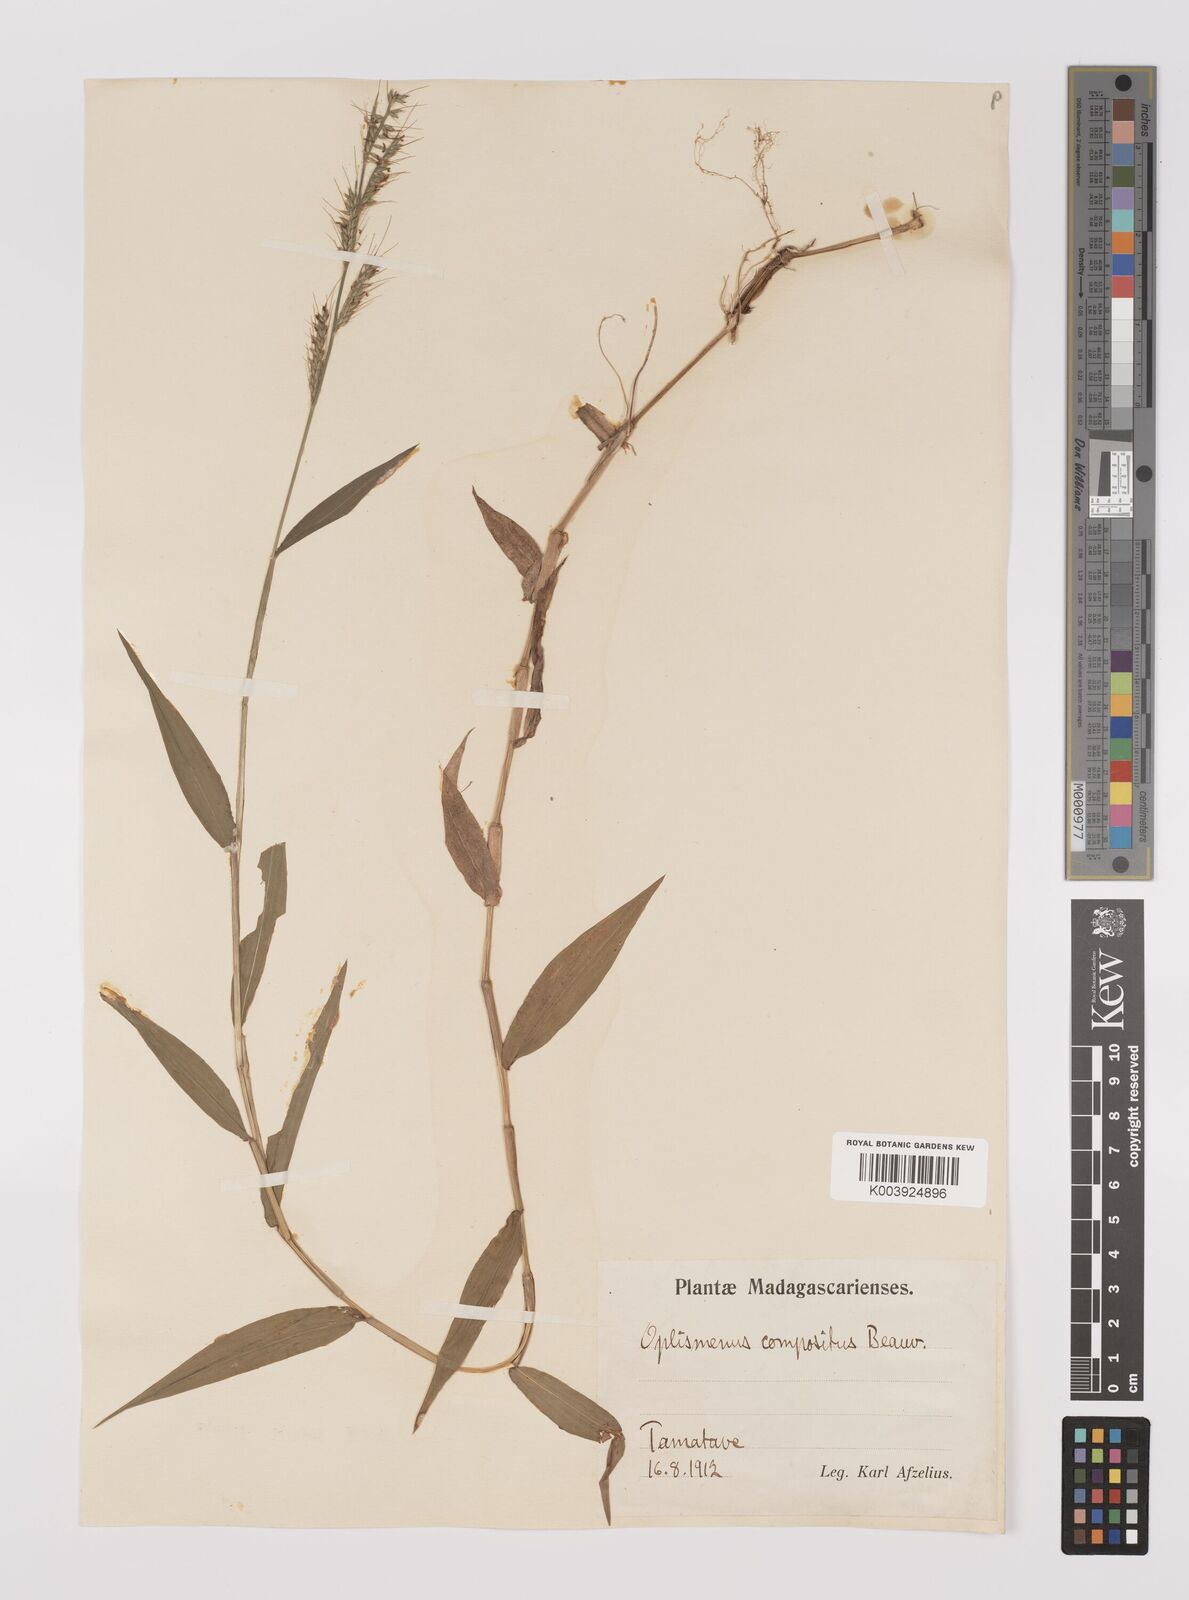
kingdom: Plantae
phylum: Tracheophyta
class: Liliopsida
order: Poales
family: Poaceae
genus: Oplismenus
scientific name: Oplismenus hirtellus
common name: Basketgrass
